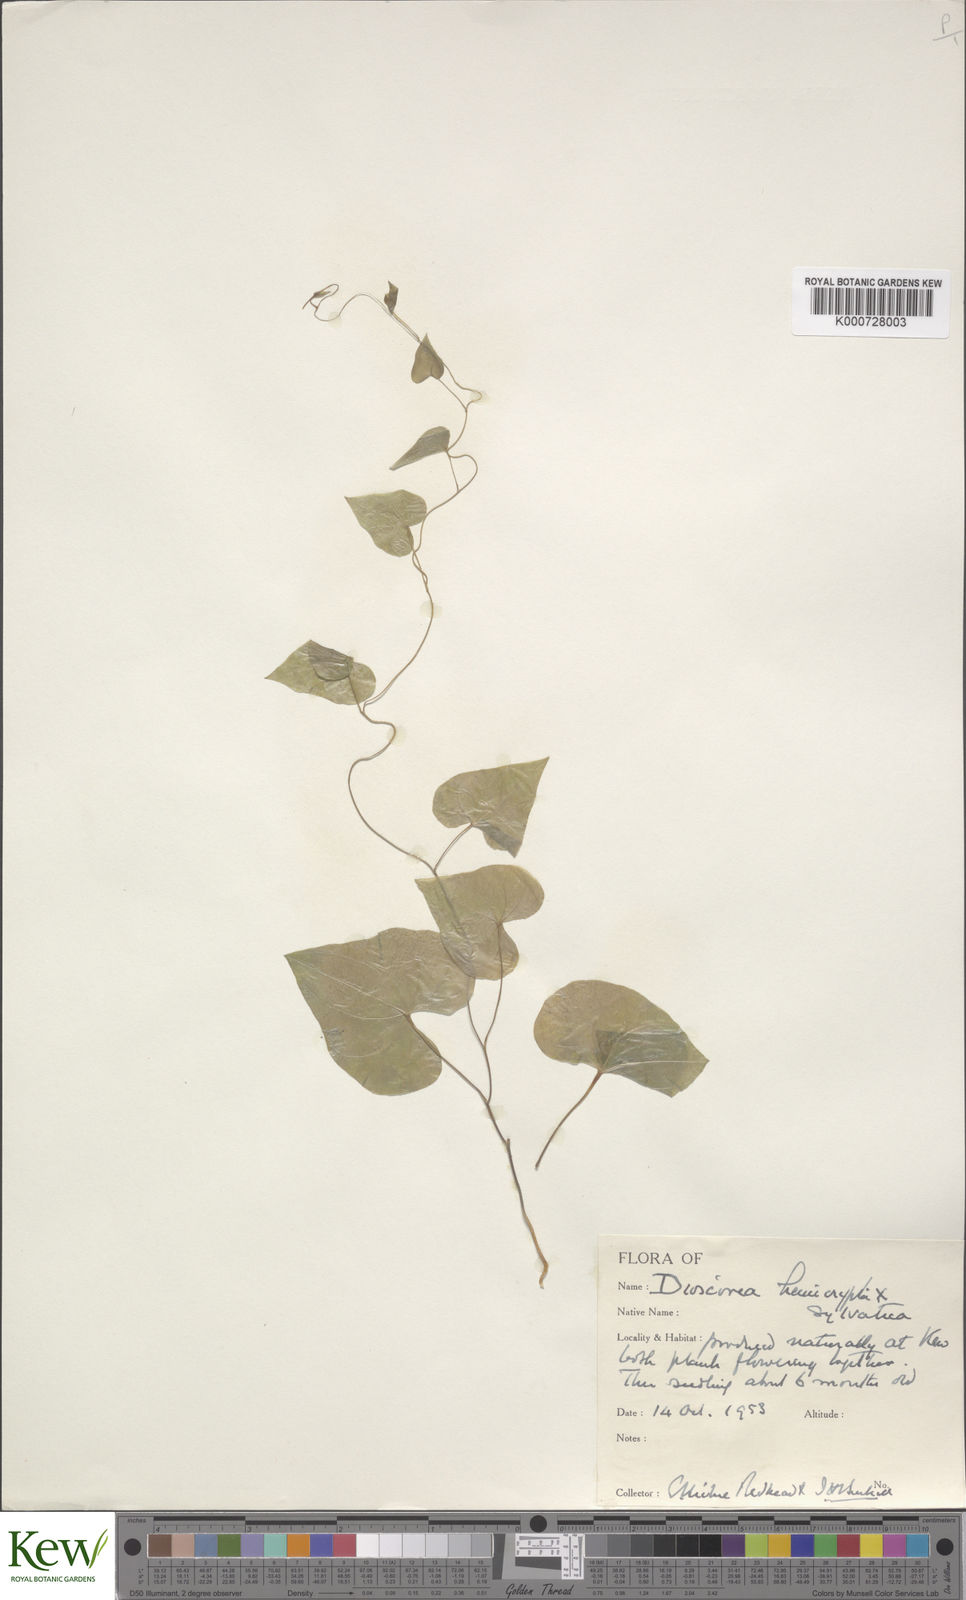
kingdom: Plantae
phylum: Tracheophyta
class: Liliopsida
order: Dioscoreales
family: Dioscoreaceae
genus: Dioscorea
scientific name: Dioscorea hemicrypta
